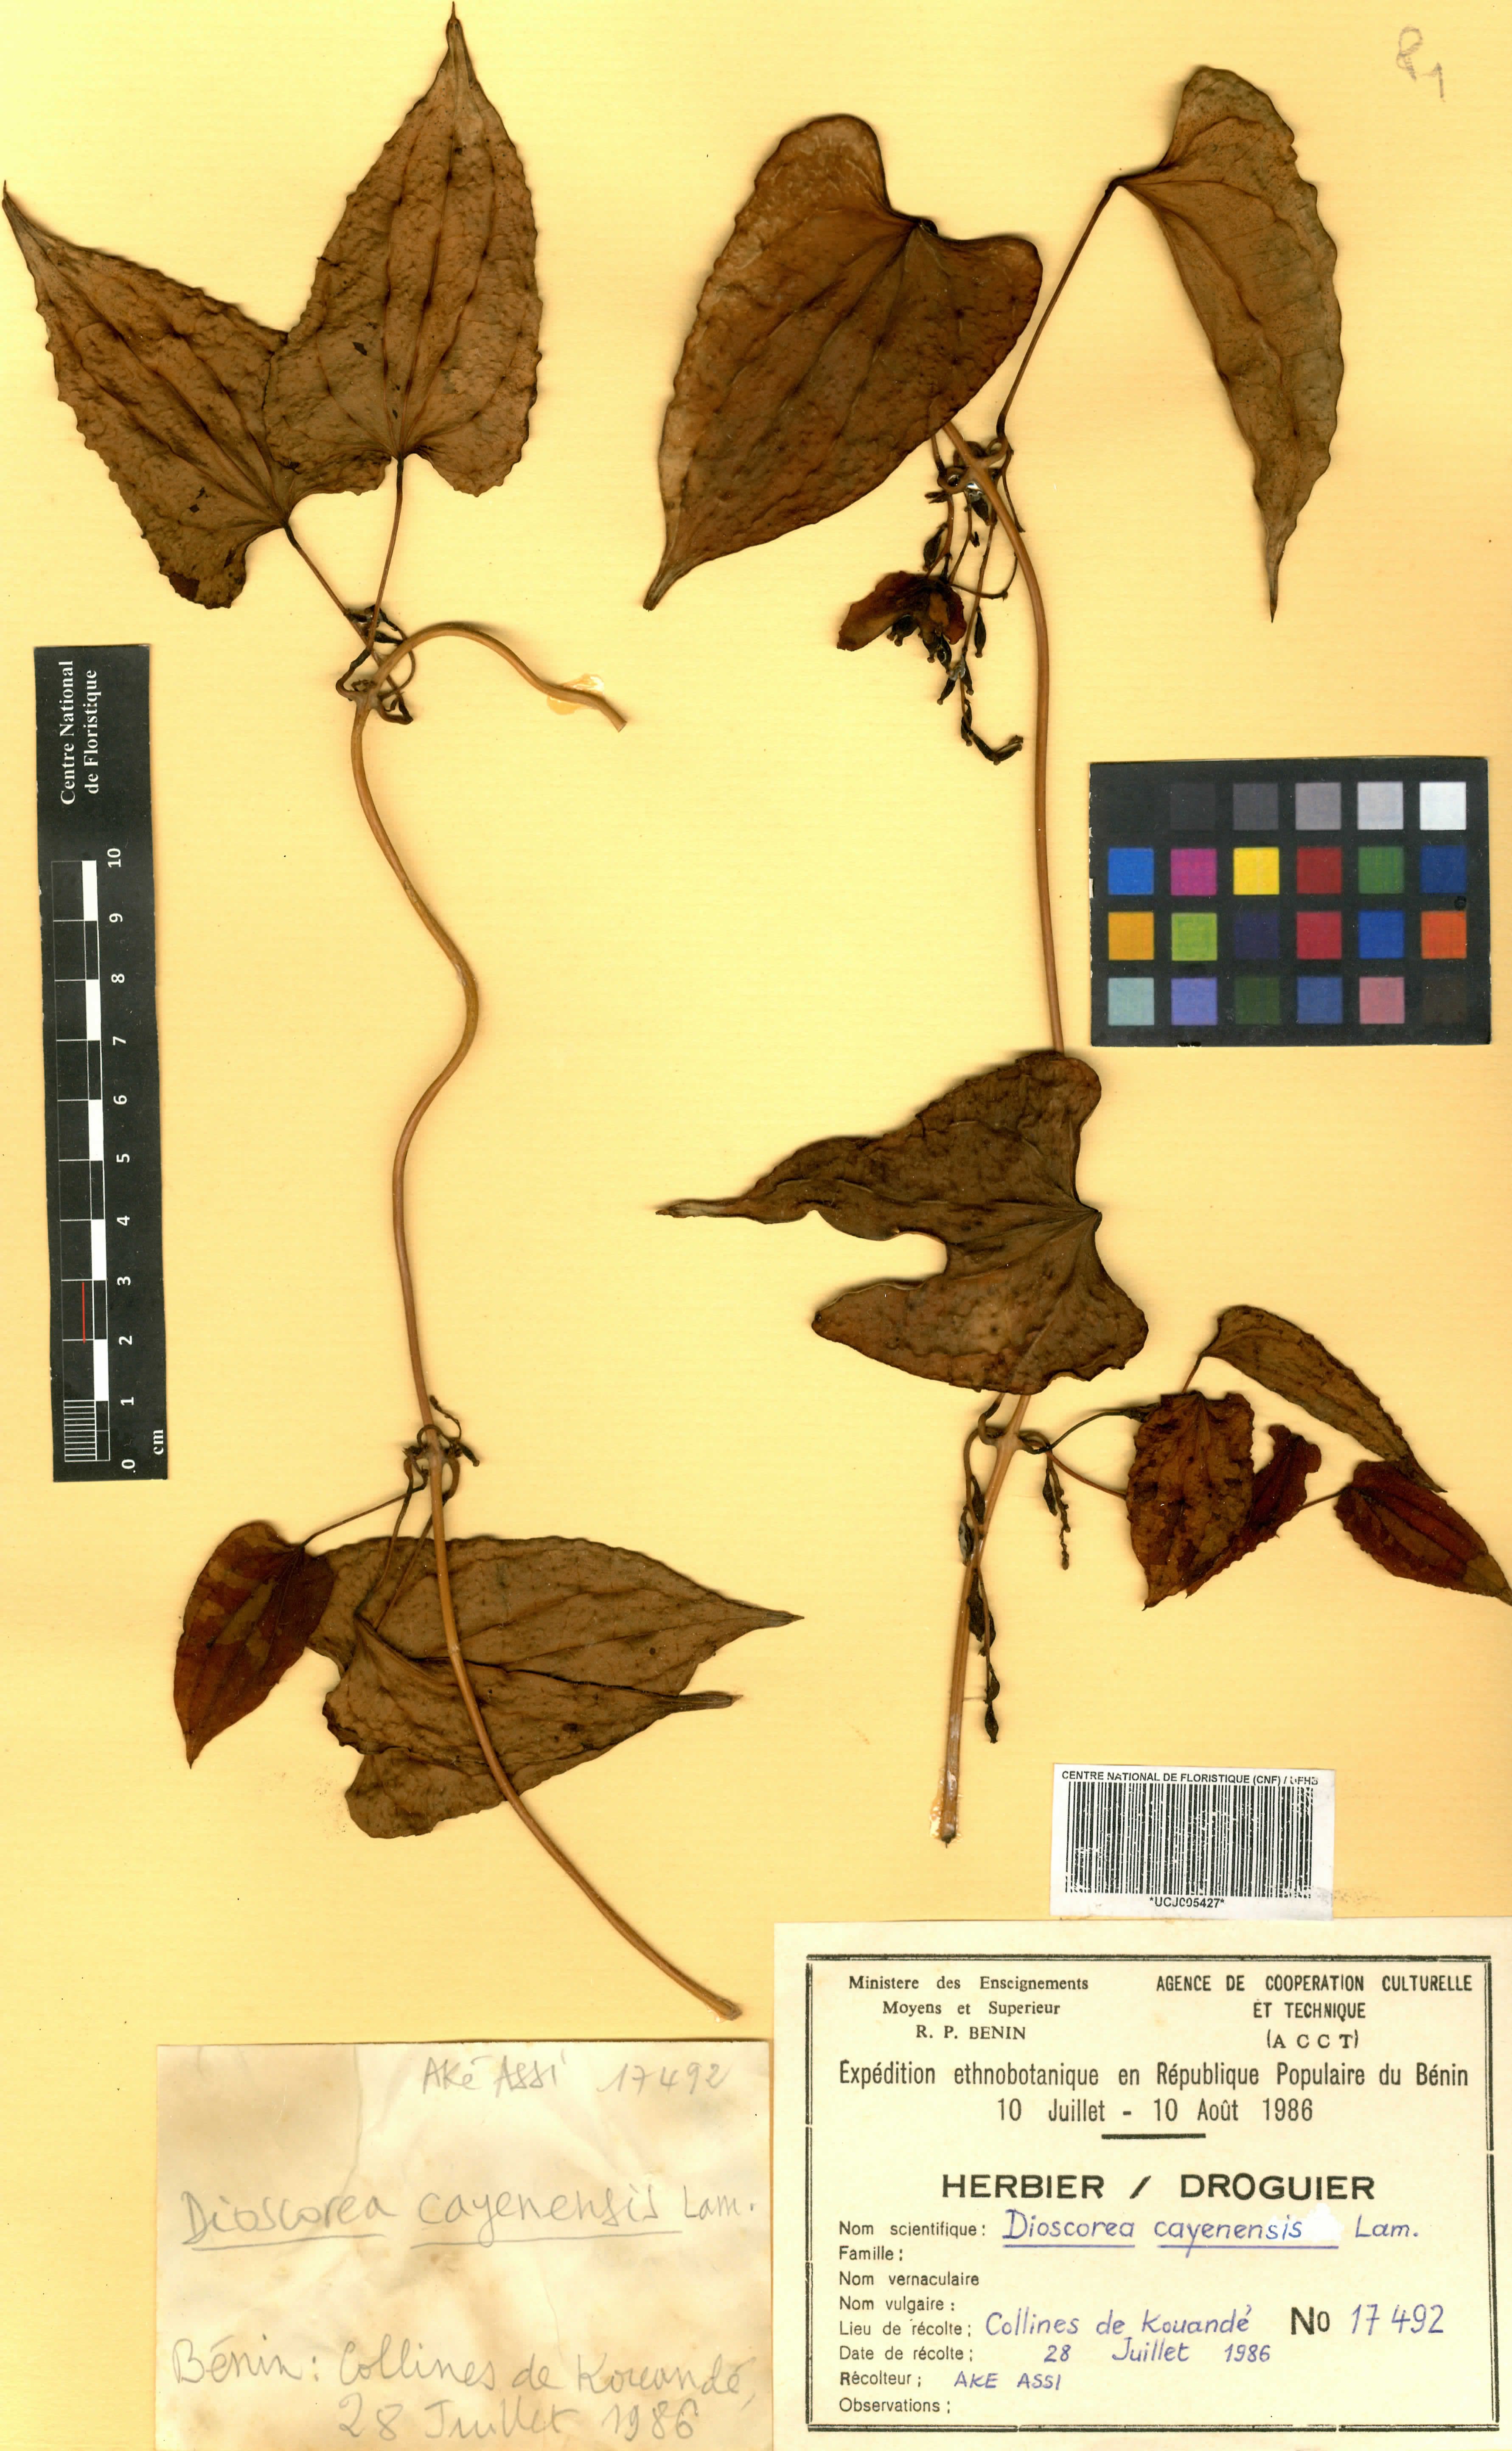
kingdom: Plantae
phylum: Tracheophyta
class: Liliopsida
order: Dioscoreales
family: Dioscoreaceae
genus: Dioscorea
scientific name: Dioscorea cayenensis
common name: Attoto yam
